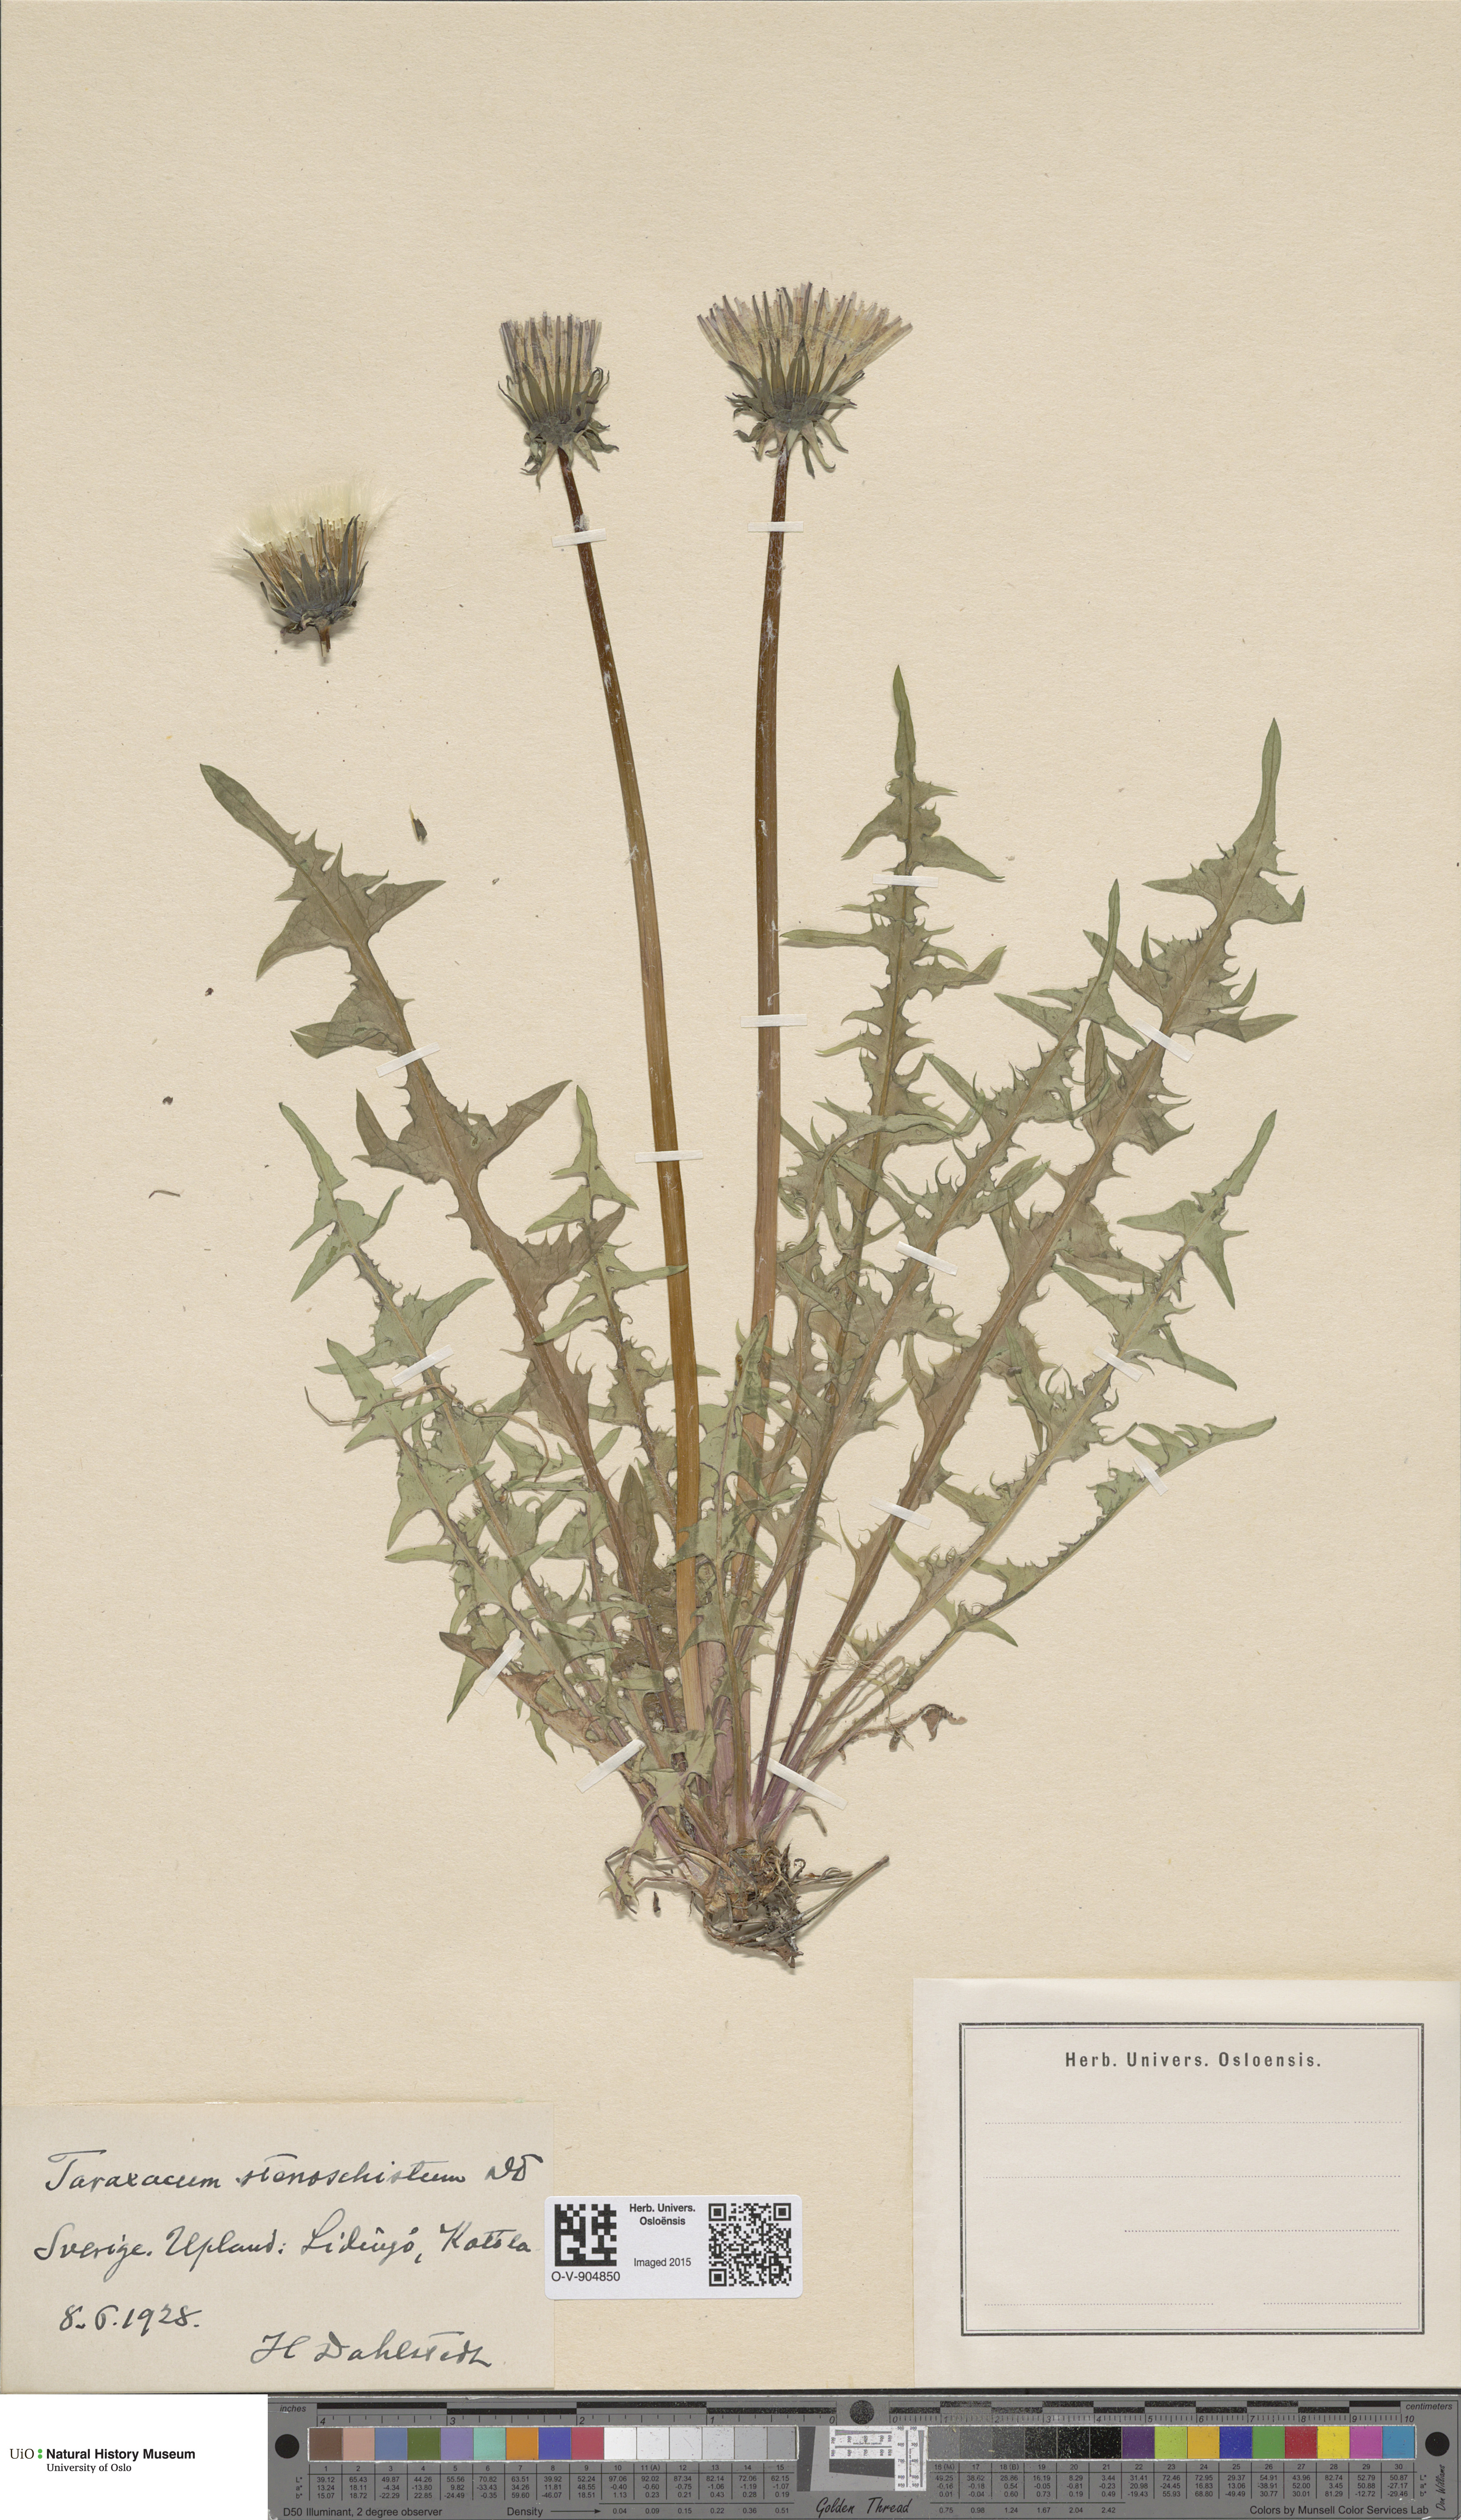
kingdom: Plantae
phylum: Tracheophyta
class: Magnoliopsida
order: Asterales
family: Asteraceae
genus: Taraxacum
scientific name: Taraxacum stenoschistum
